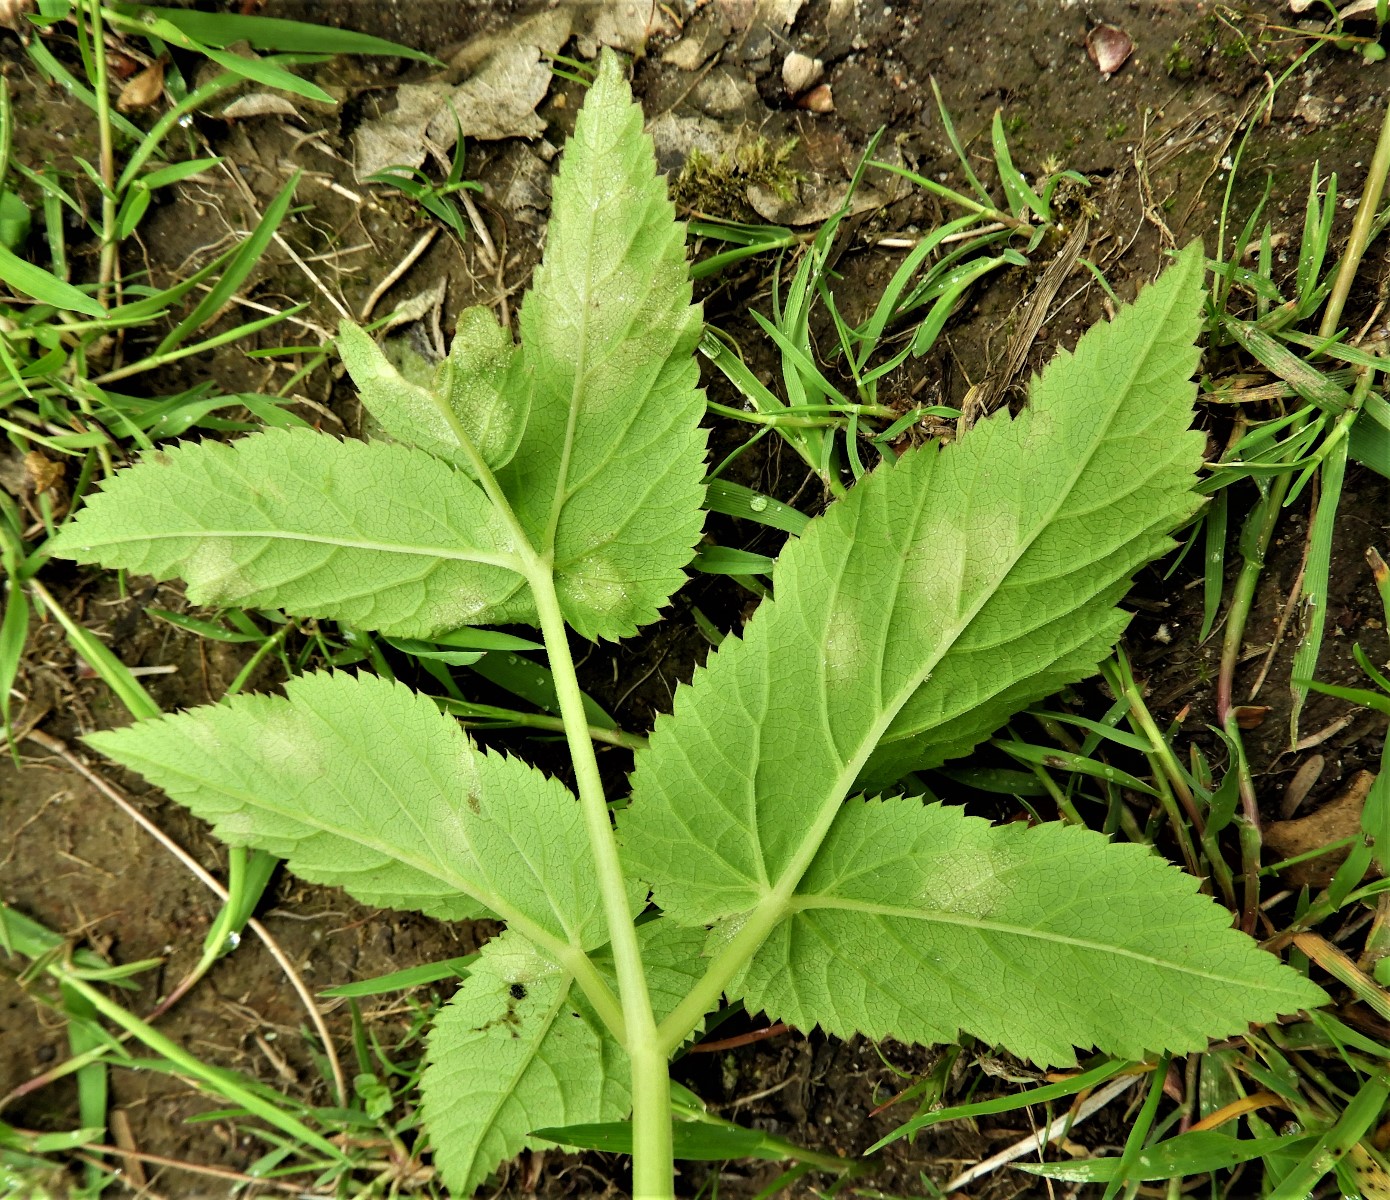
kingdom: Chromista
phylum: Oomycota
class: Peronosporea
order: Peronosporales
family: Peronosporaceae
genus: Peronospora
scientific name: Peronospora crustosa
